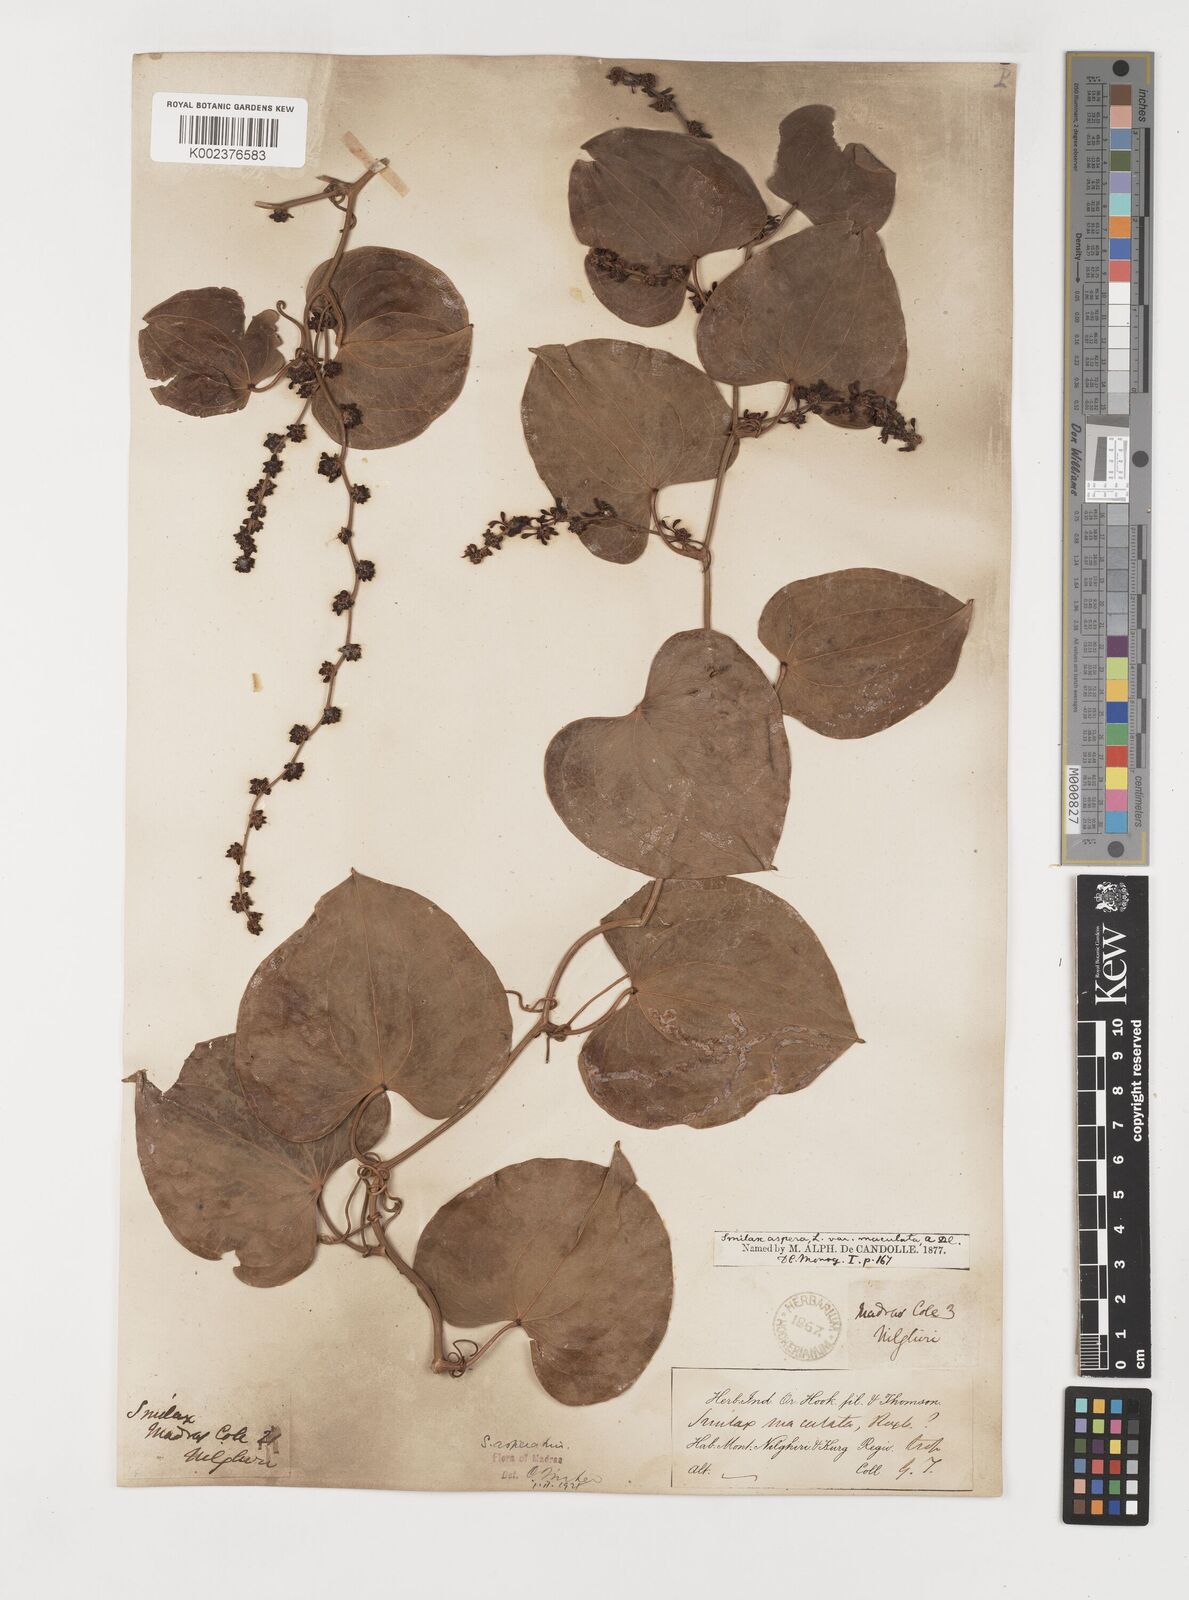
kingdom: Plantae
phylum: Tracheophyta
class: Liliopsida
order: Liliales
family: Smilacaceae
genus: Smilax
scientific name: Smilax aspera
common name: Common smilax
